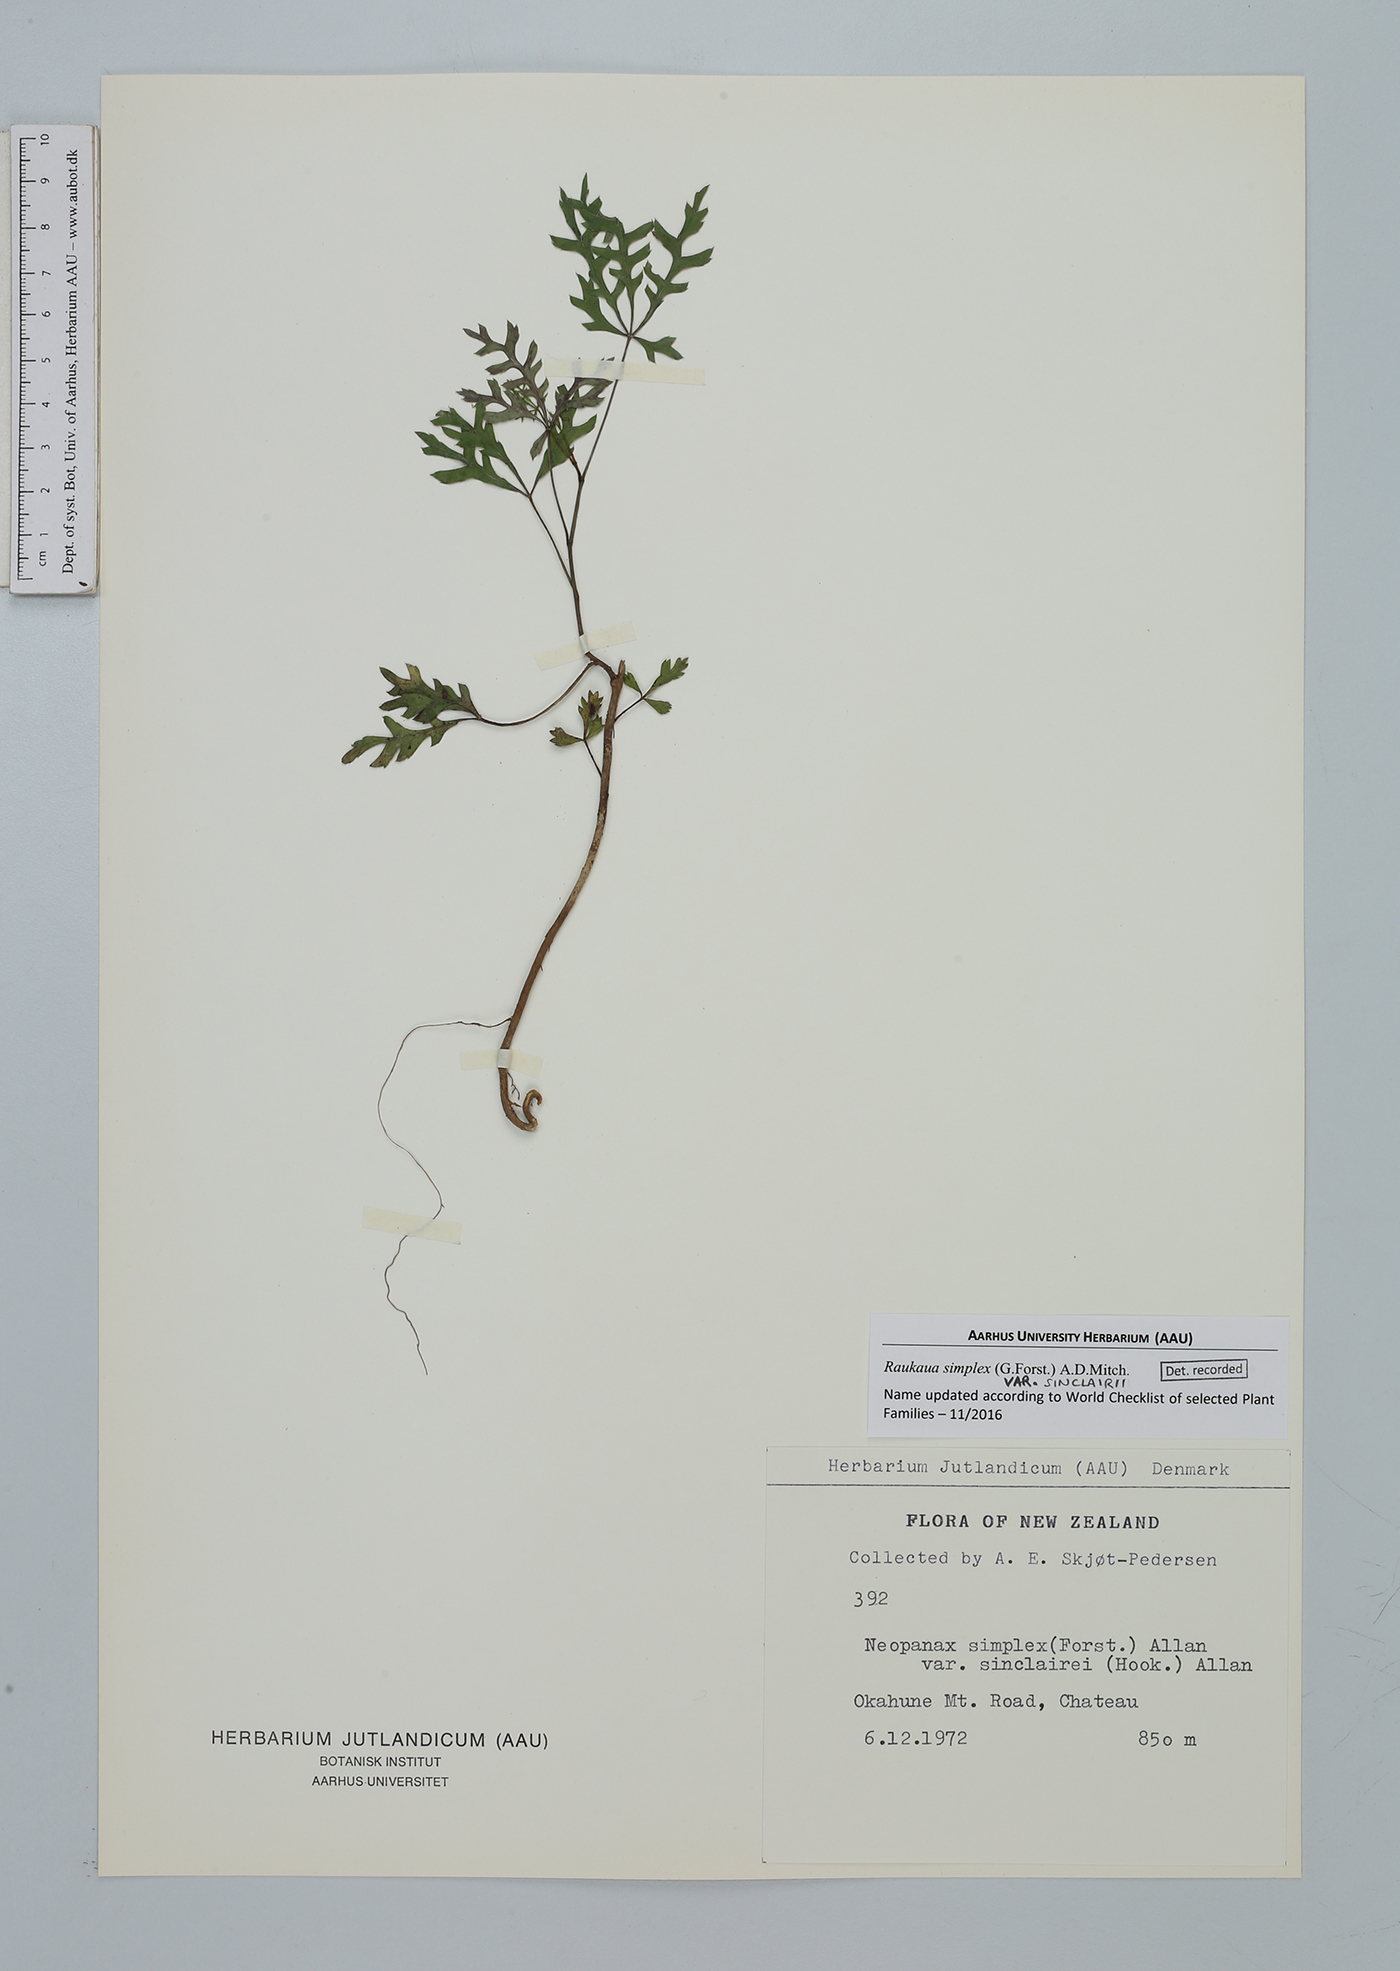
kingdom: Plantae
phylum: Tracheophyta
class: Magnoliopsida
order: Apiales
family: Araliaceae
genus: Raukaua
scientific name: Raukaua simplex
